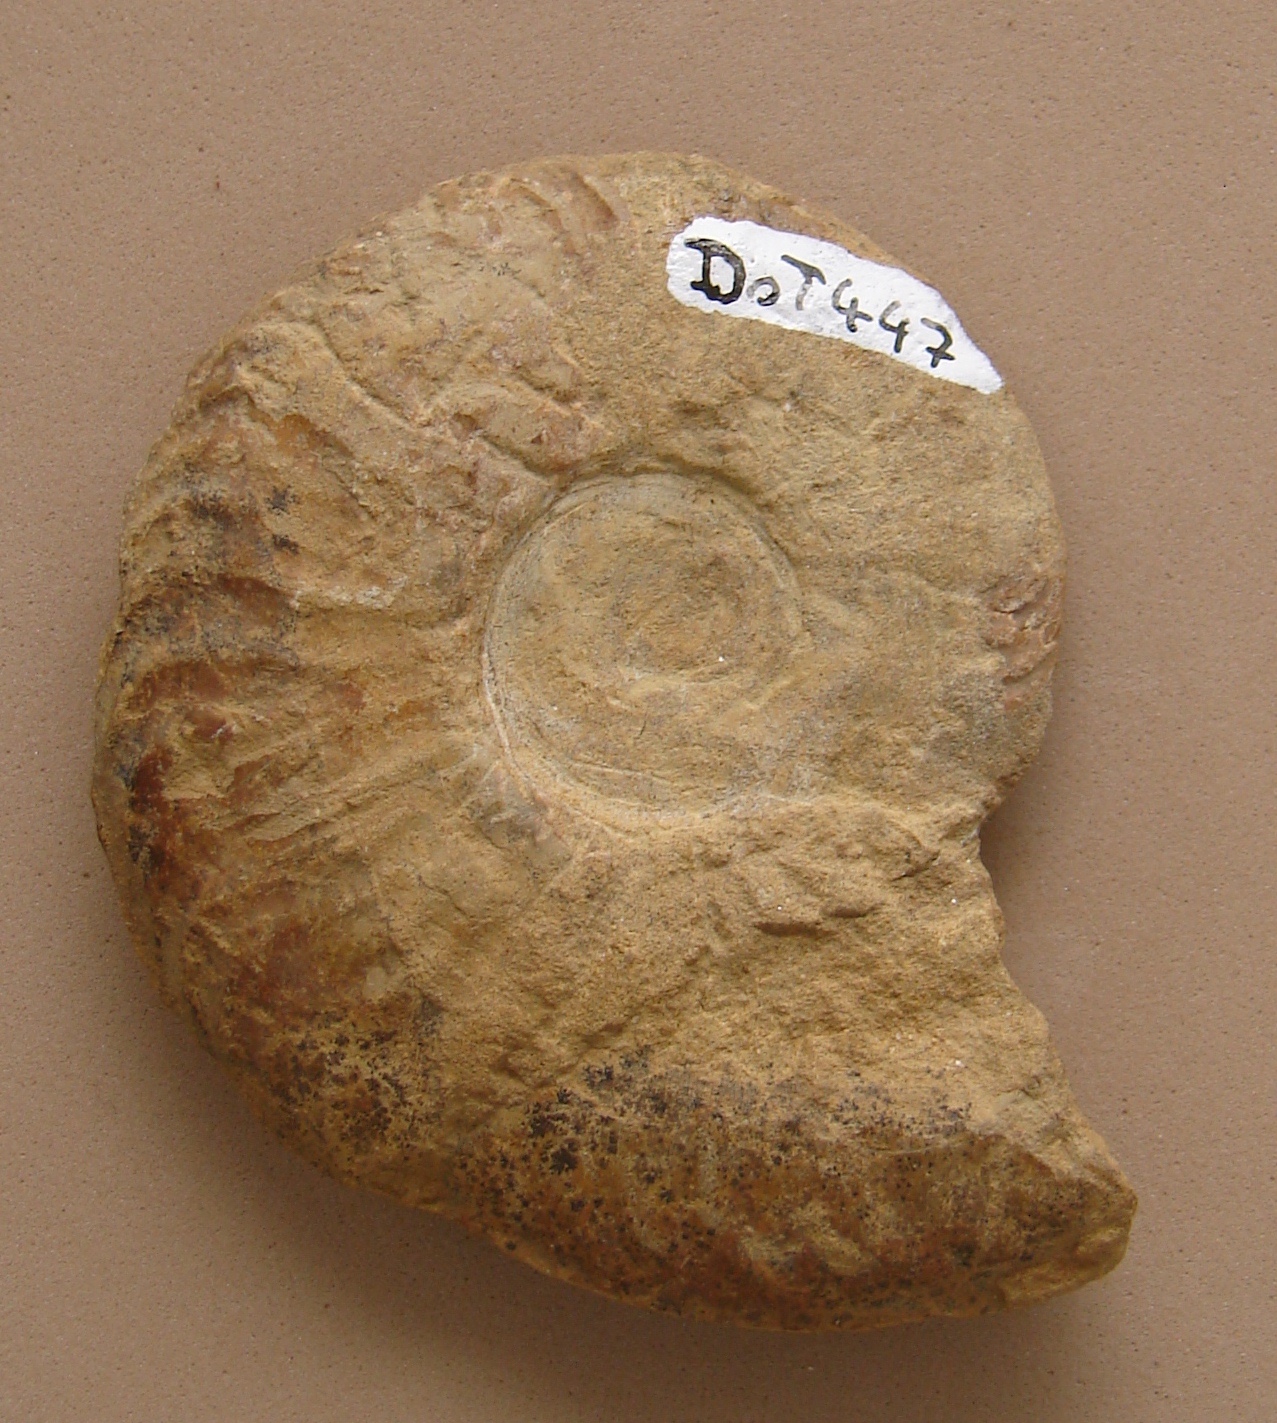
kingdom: Animalia
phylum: Mollusca
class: Cephalopoda
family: Hildoceratidae
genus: Pleydellia
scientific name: Pleydellia aalensis
